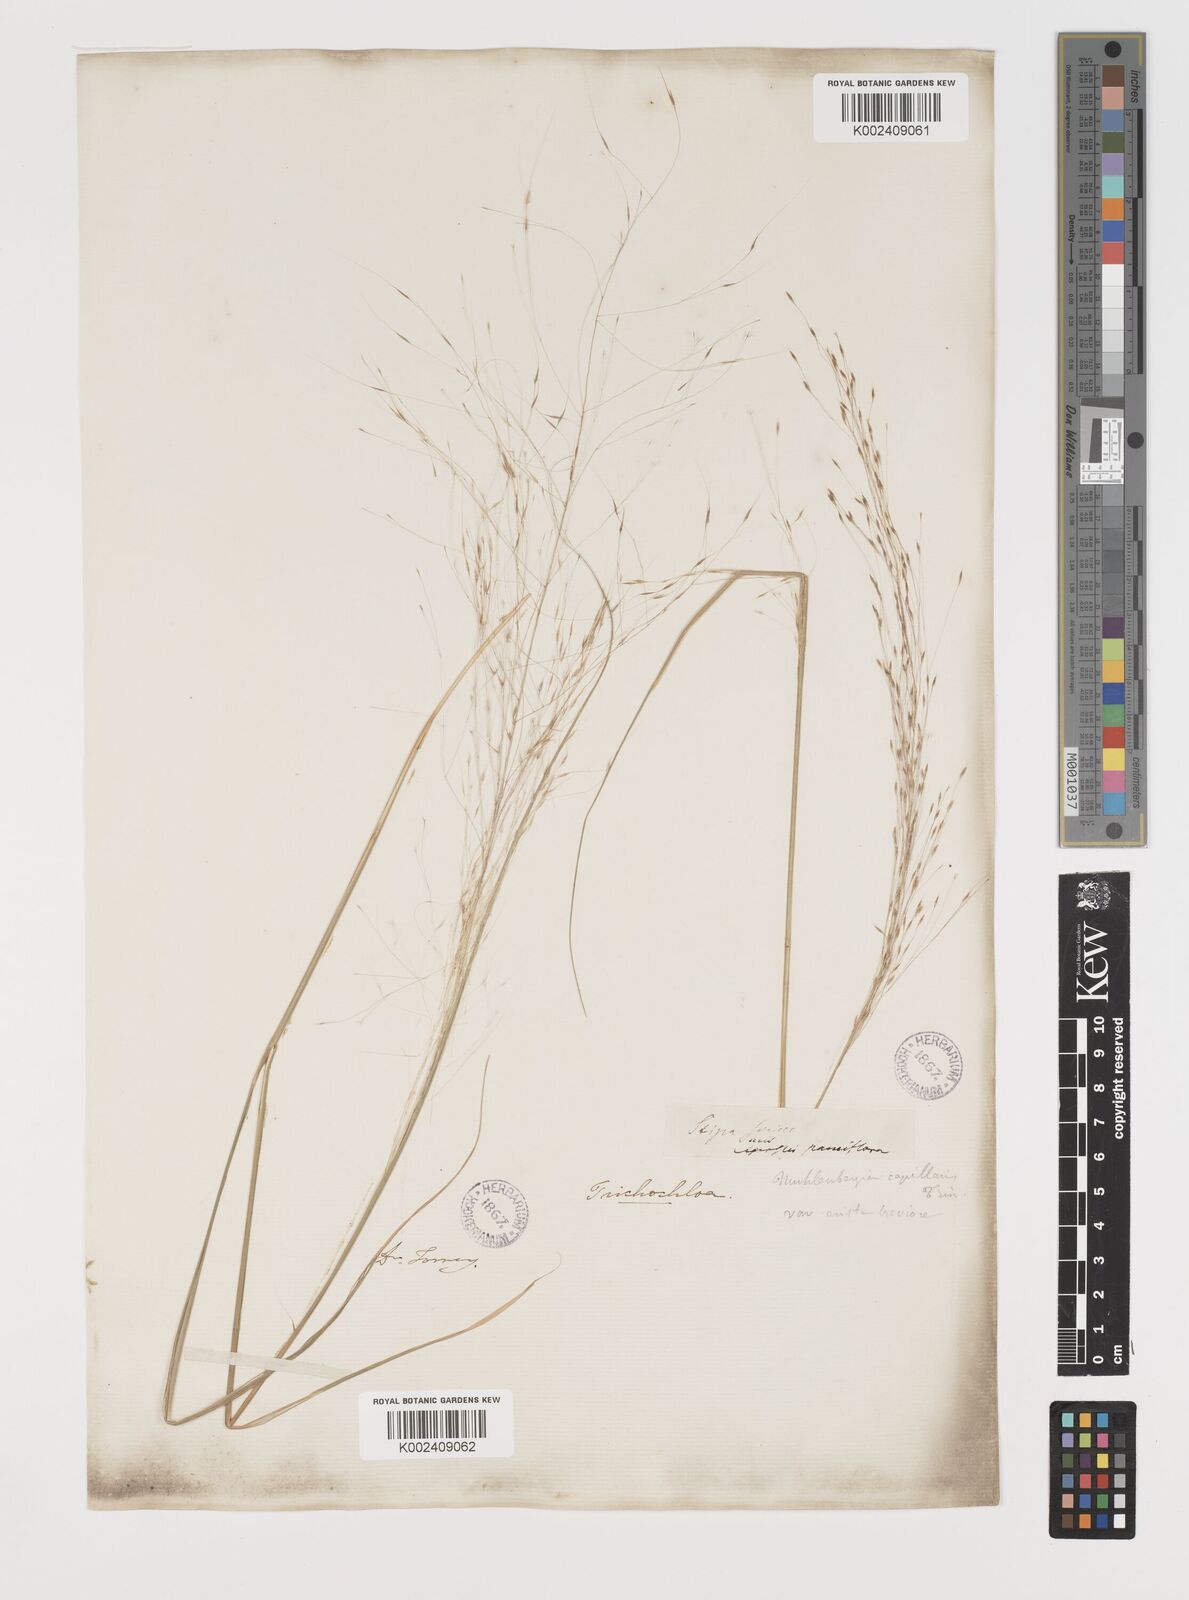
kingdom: Plantae
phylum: Tracheophyta
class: Liliopsida
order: Poales
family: Poaceae
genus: Muhlenbergia
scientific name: Muhlenbergia capillaris
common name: Purple grass
